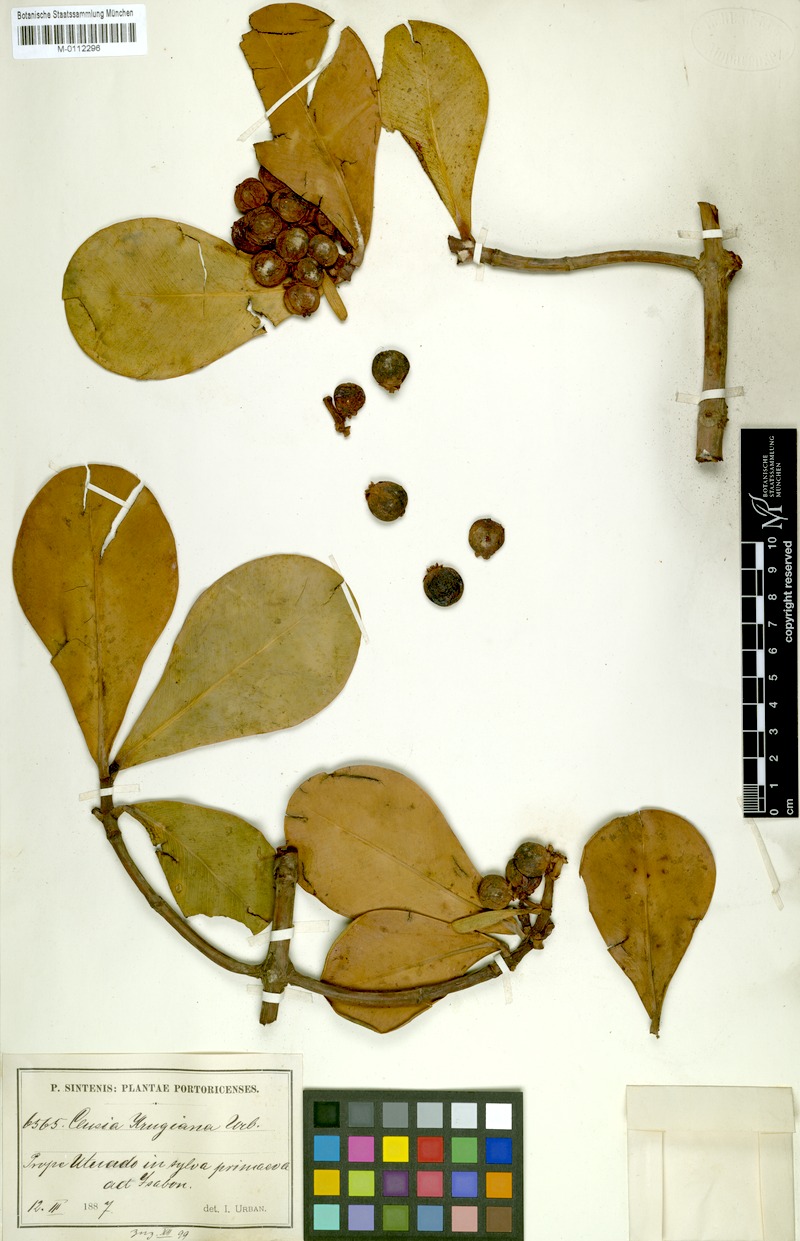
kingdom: Plantae
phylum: Tracheophyta
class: Magnoliopsida
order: Malpighiales
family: Clusiaceae
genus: Clusia
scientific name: Clusia clusioides
